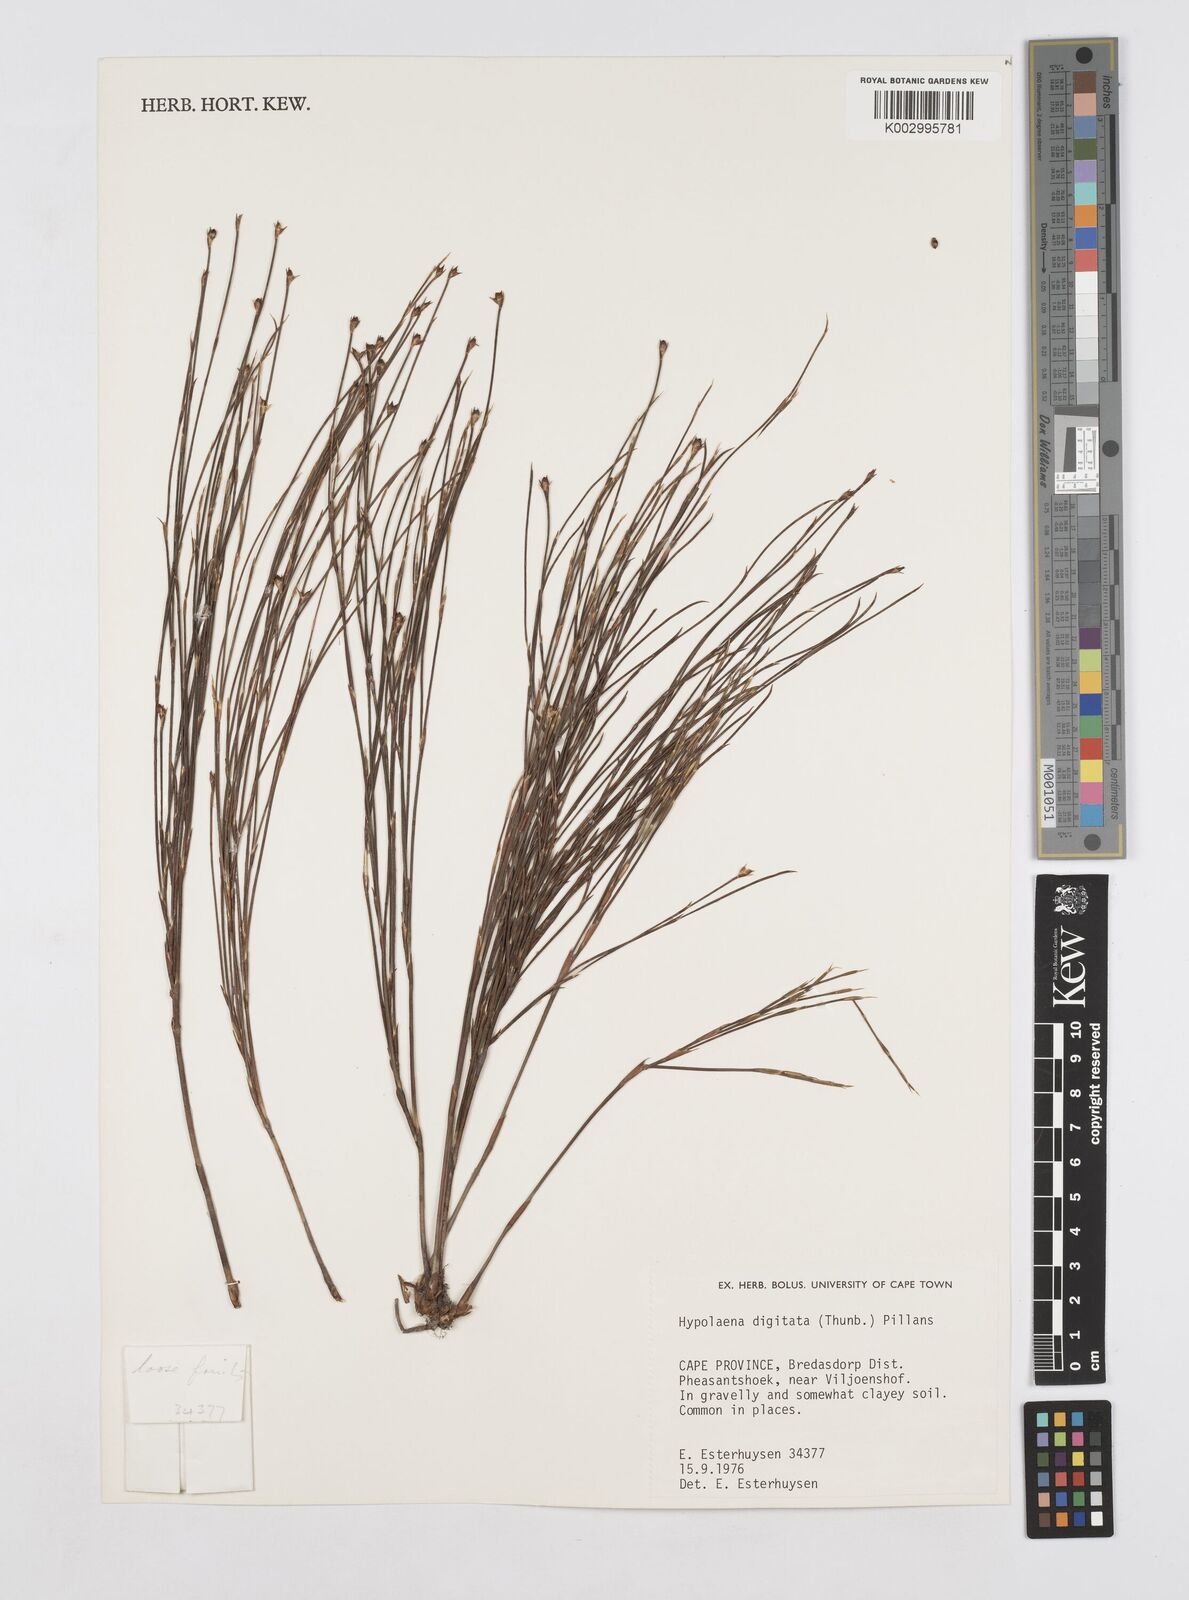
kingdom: Plantae
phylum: Tracheophyta
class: Liliopsida
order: Poales
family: Restionaceae
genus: Mastersiella
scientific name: Mastersiella digitata
